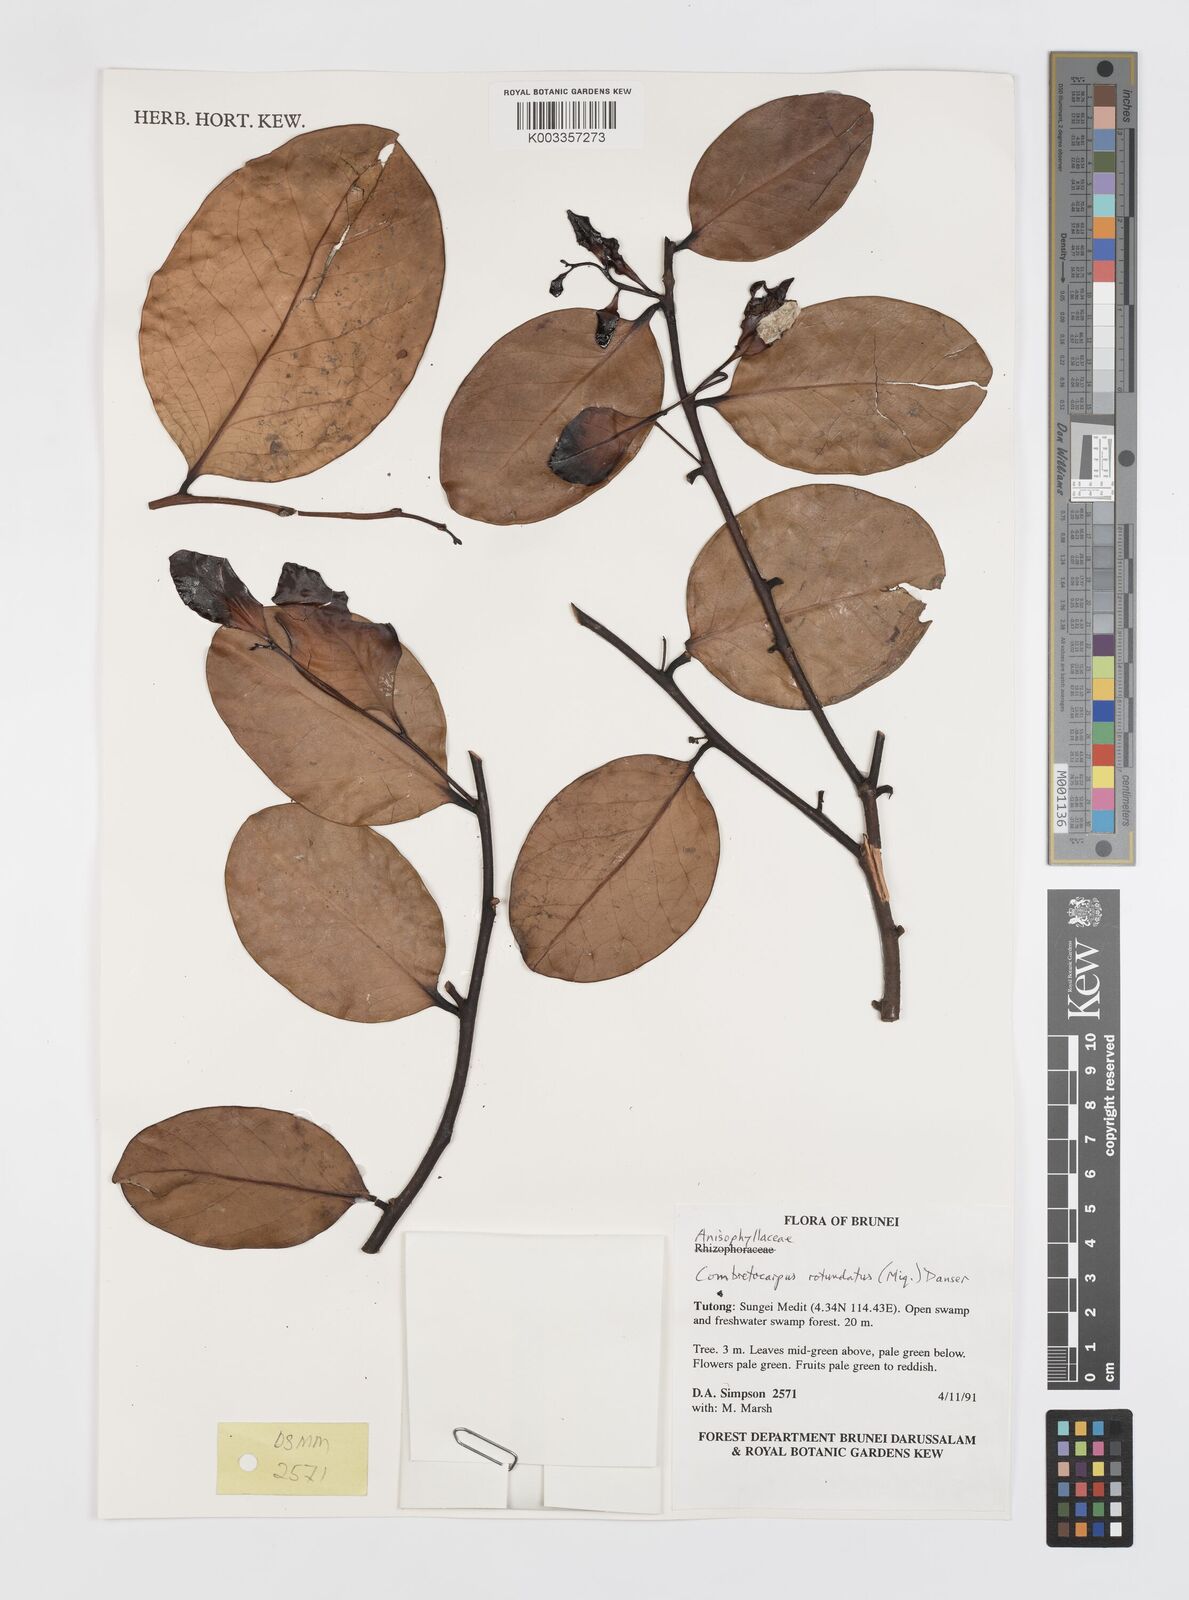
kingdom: Plantae
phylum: Tracheophyta
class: Magnoliopsida
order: Cucurbitales
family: Anisophylleaceae
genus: Combretocarpus
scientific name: Combretocarpus rotundatus
